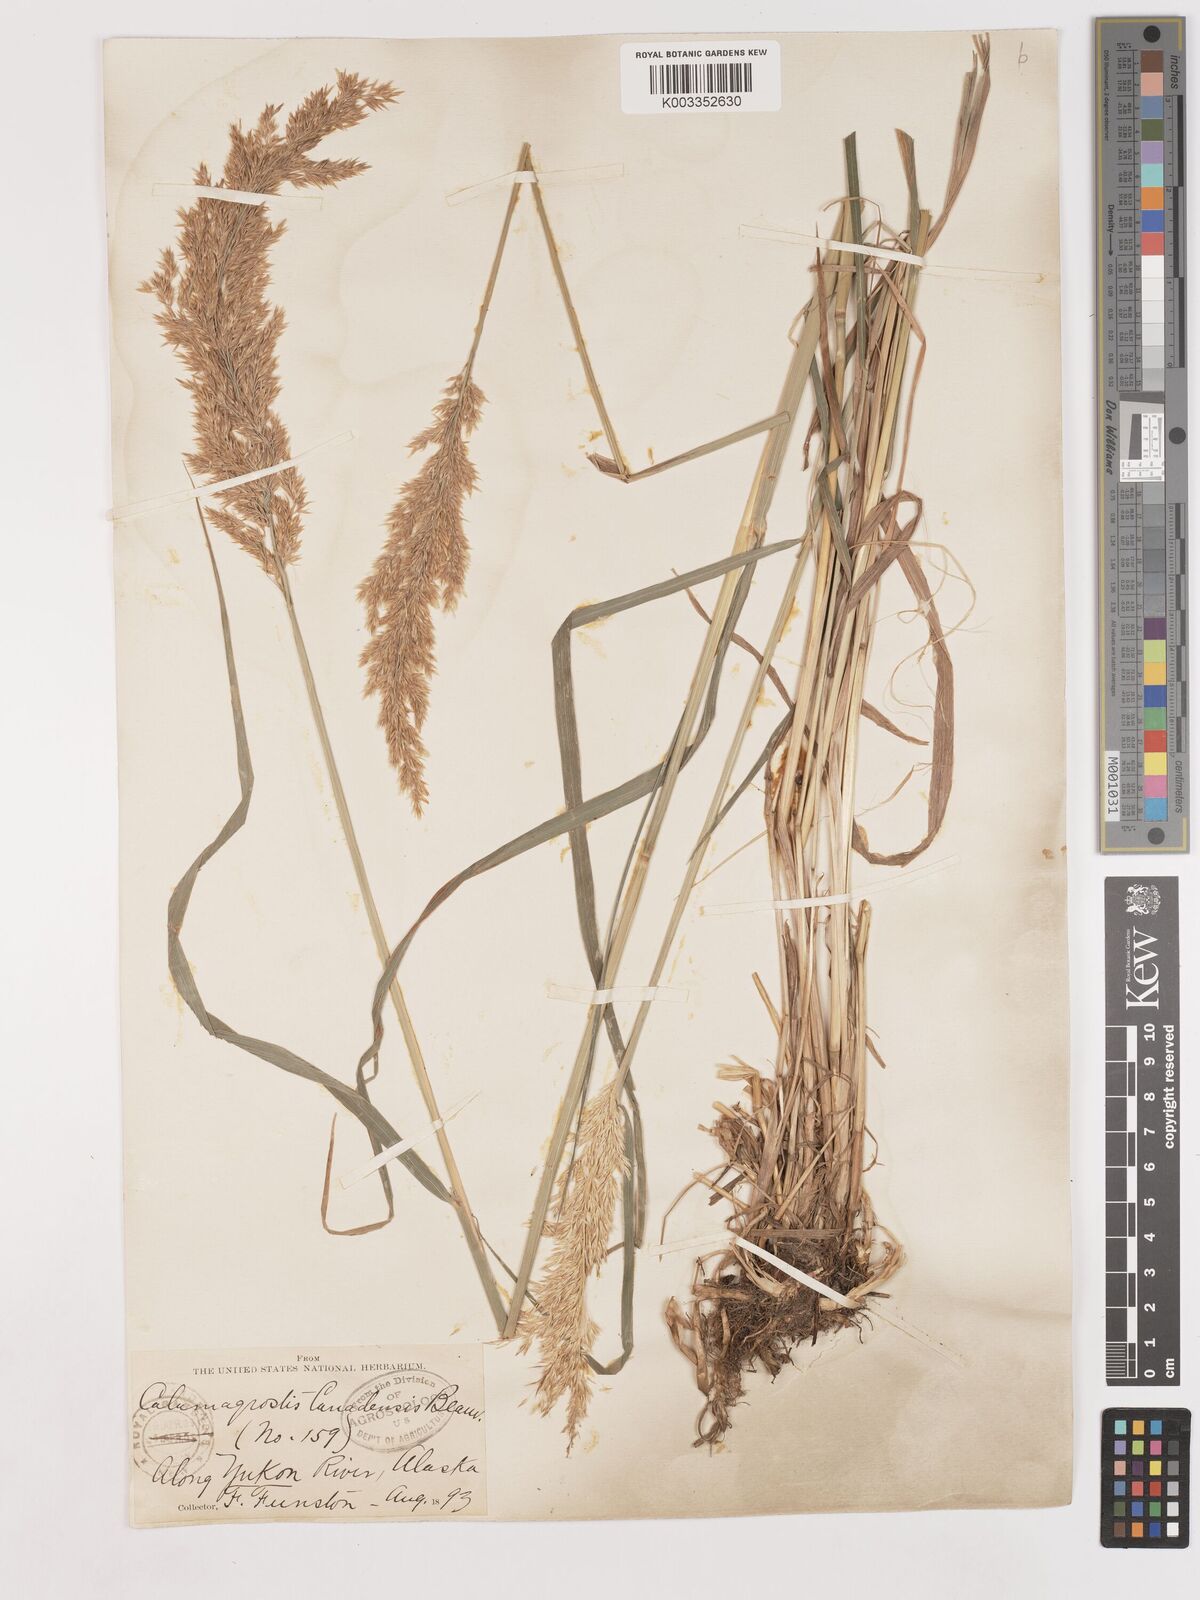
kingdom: Plantae
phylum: Tracheophyta
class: Liliopsida
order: Poales
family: Poaceae
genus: Calamagrostis
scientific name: Calamagrostis canadensis
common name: Canada bluejoint
